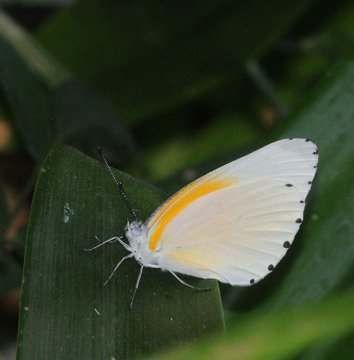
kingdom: Animalia
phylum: Arthropoda
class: Insecta
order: Lepidoptera
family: Pieridae
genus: Mylothris
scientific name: Mylothris rueppellii
